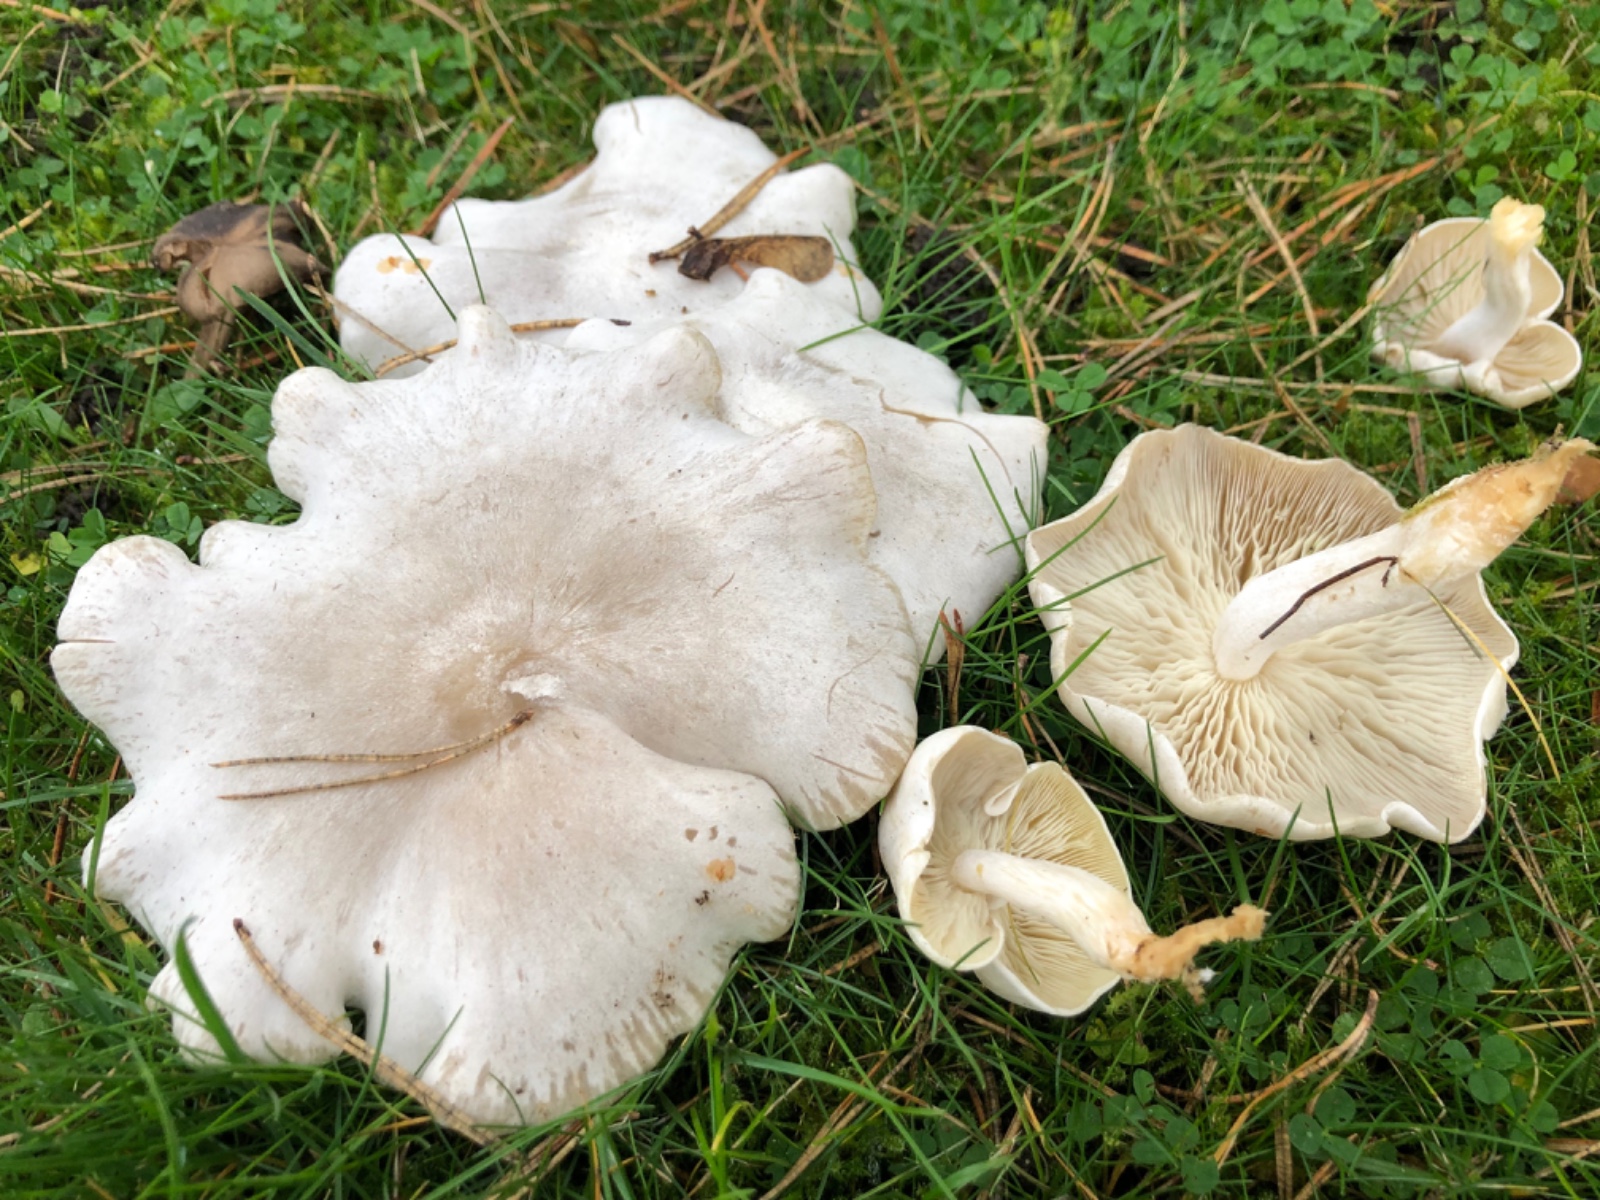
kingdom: Fungi
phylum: Basidiomycota
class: Agaricomycetes
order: Agaricales
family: Tricholomataceae
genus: Leucocybe
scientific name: Leucocybe connata
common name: knippe-tragthat
